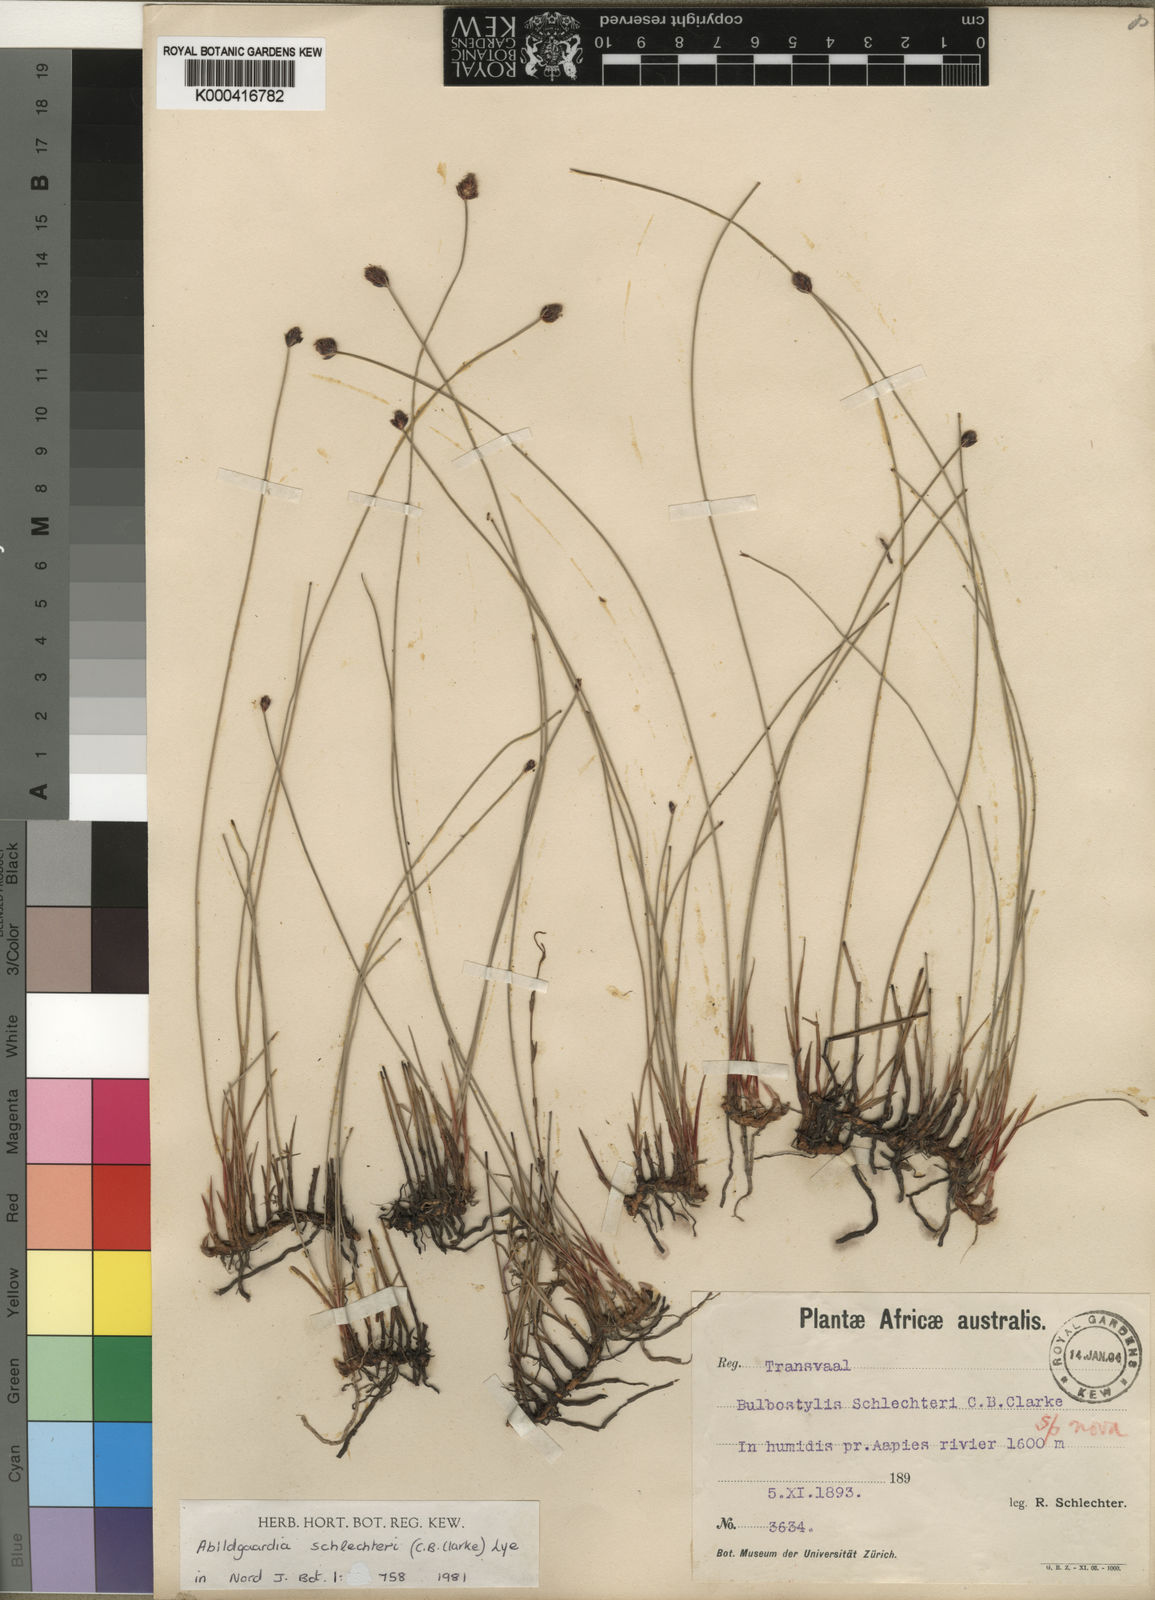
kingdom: Plantae
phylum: Tracheophyta
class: Liliopsida
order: Poales
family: Cyperaceae
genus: Bulbostylis
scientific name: Bulbostylis schlechteri
